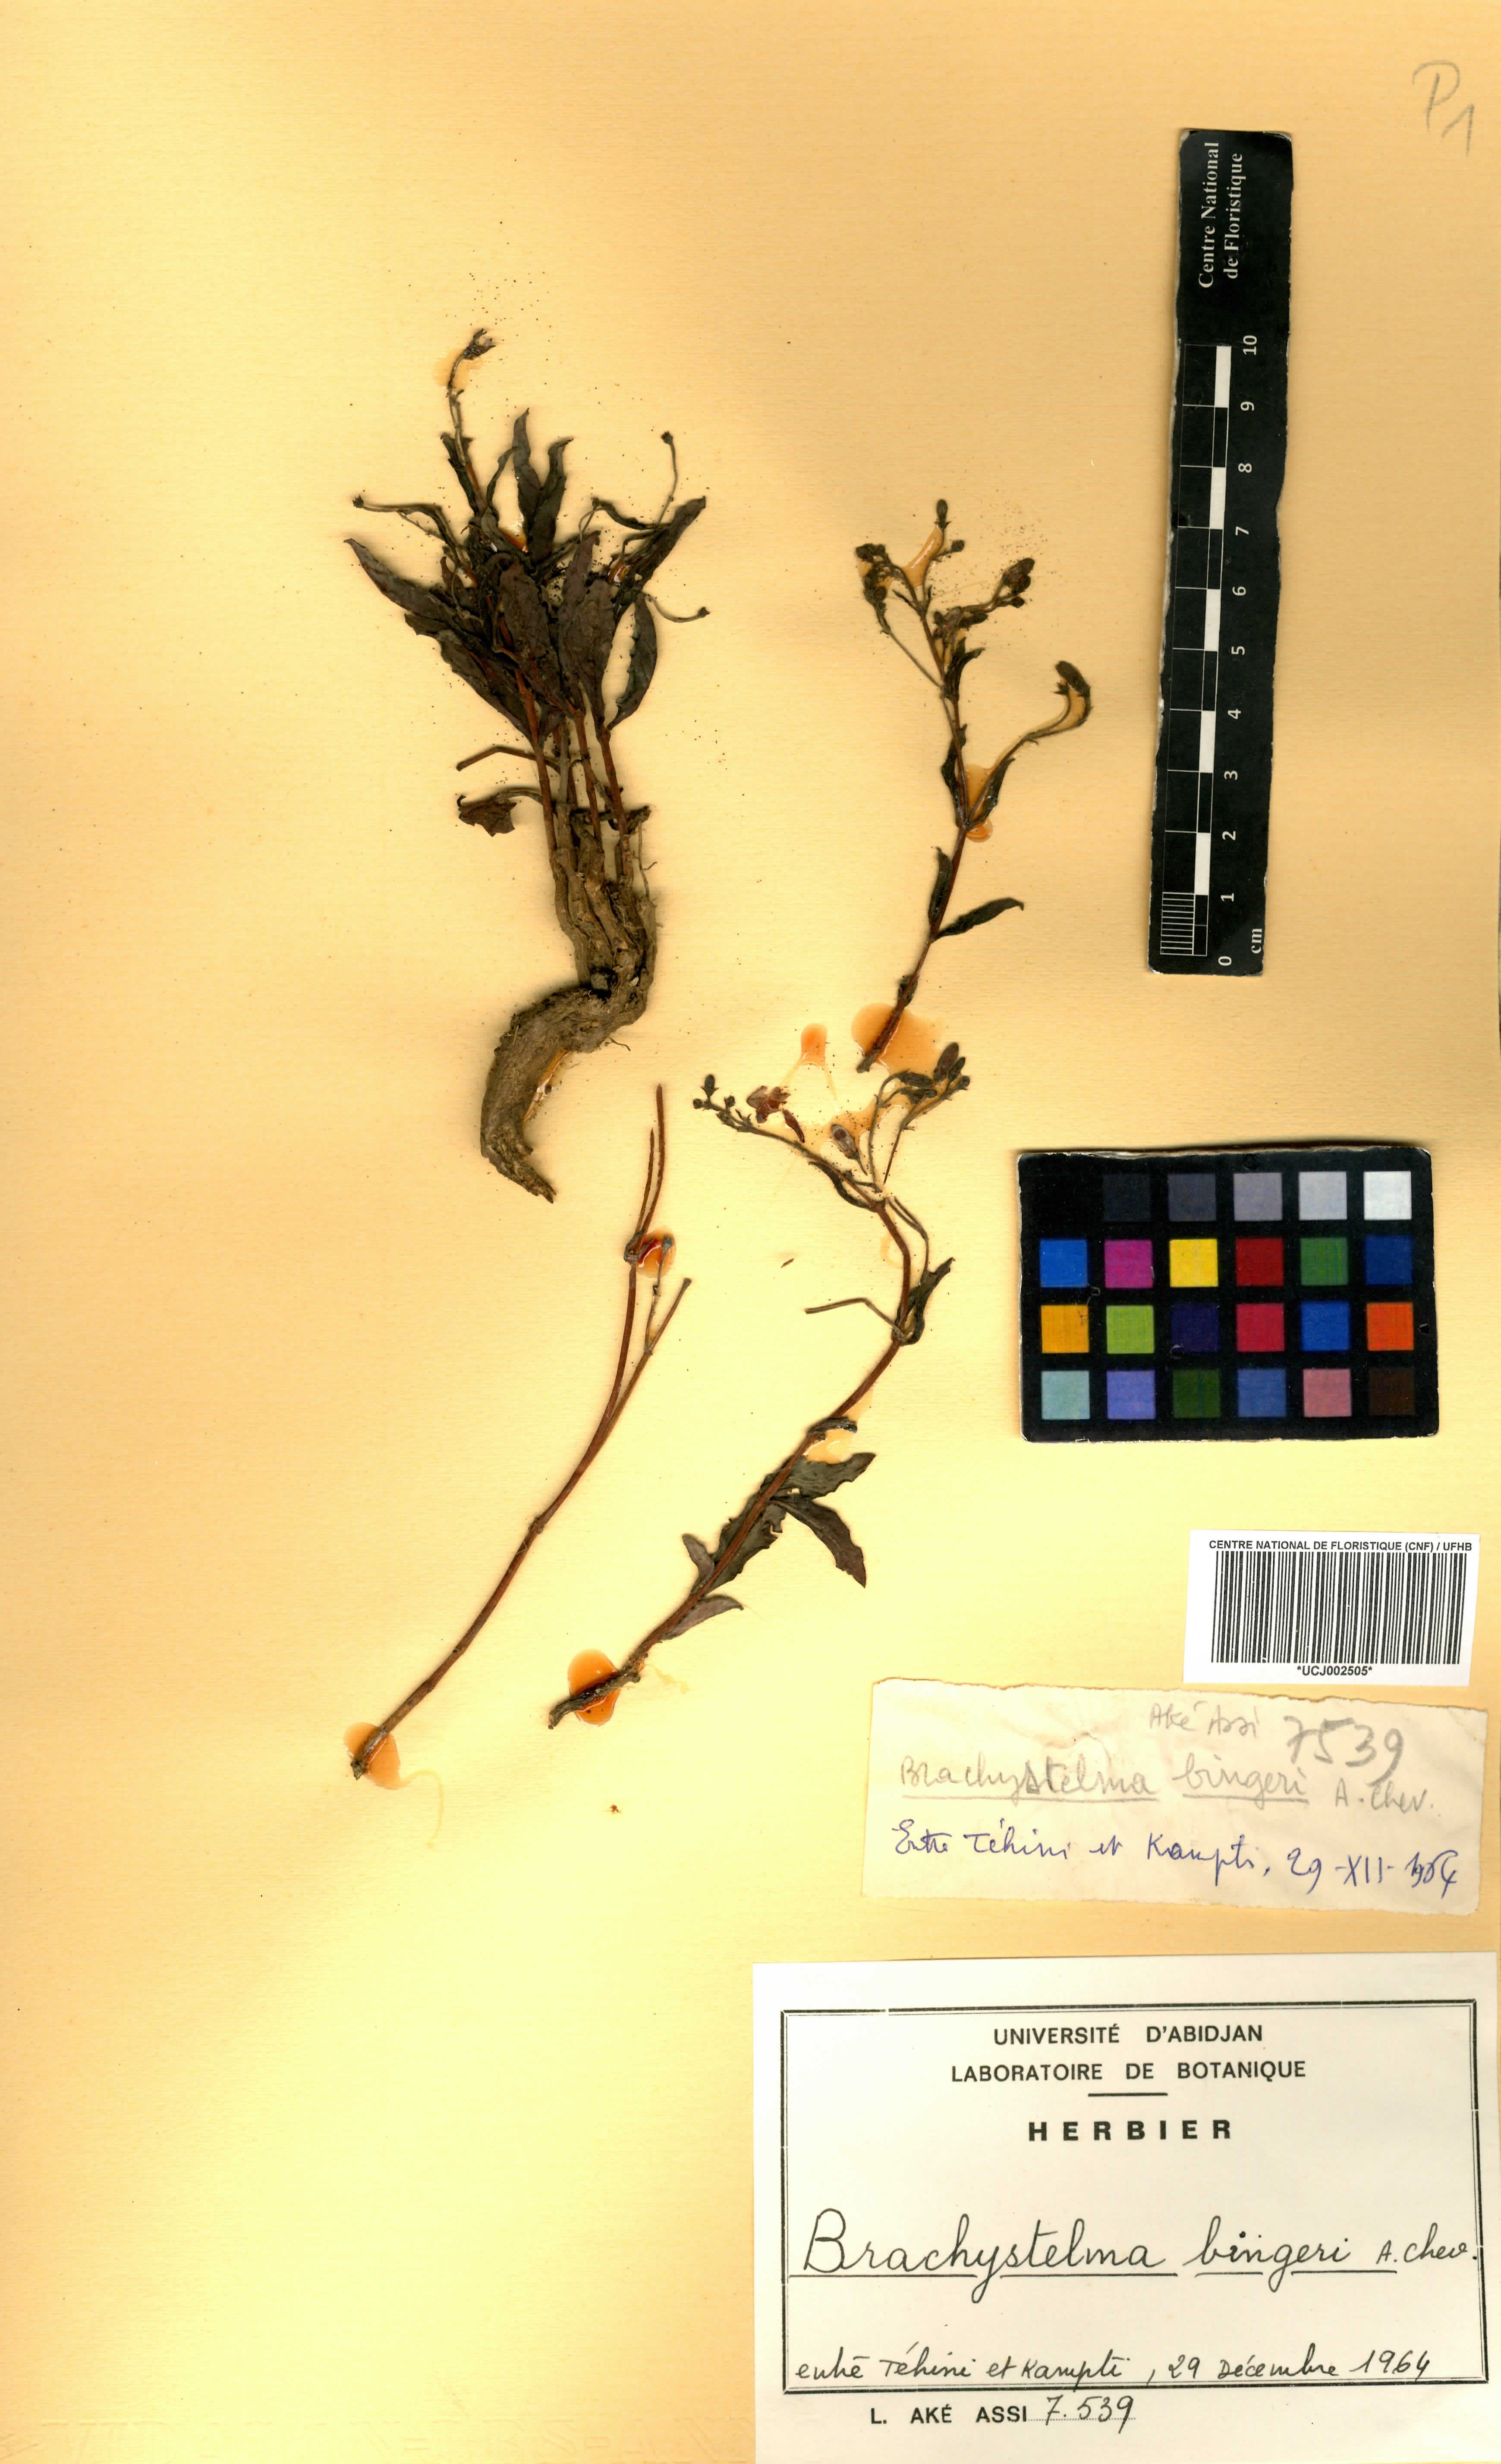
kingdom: Plantae
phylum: Tracheophyta
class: Magnoliopsida
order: Gentianales
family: Apocynaceae
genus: Raphionacme
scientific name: Raphionacme splendens
